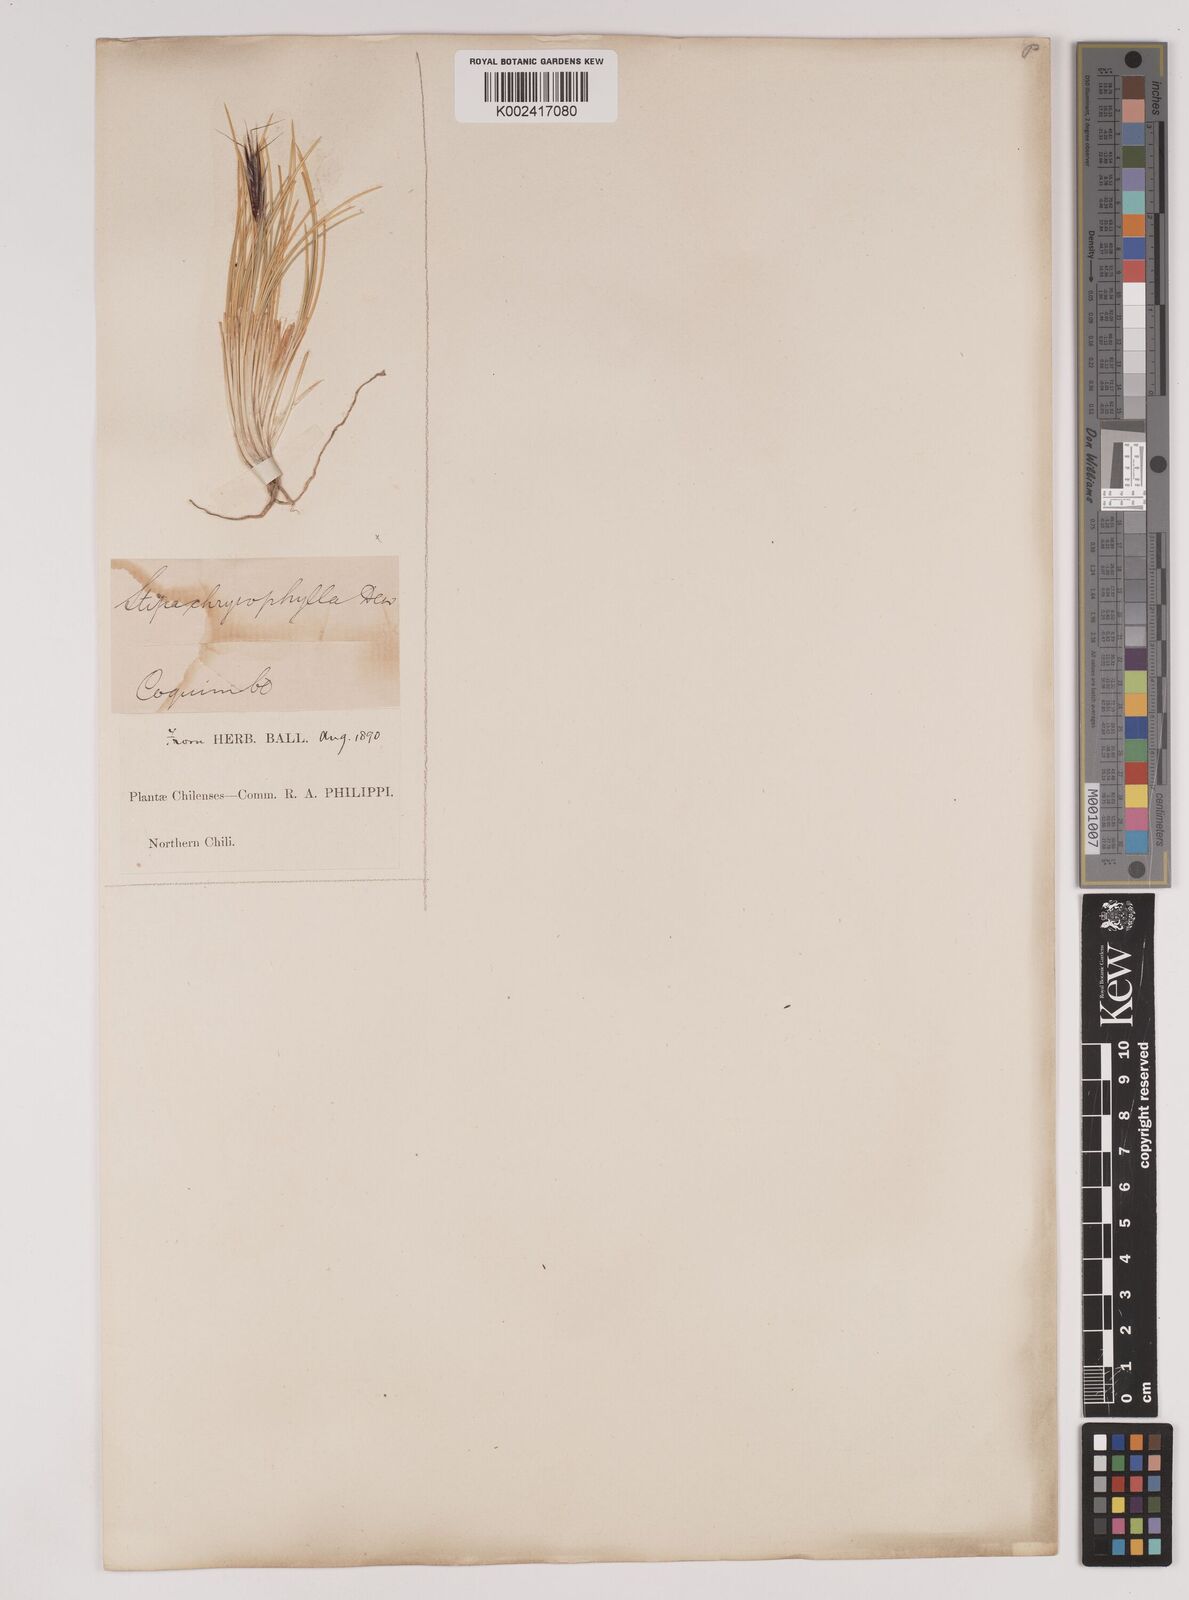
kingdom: Plantae
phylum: Tracheophyta
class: Liliopsida
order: Poales
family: Poaceae
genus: Pappostipa
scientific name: Pappostipa chrysophylla
